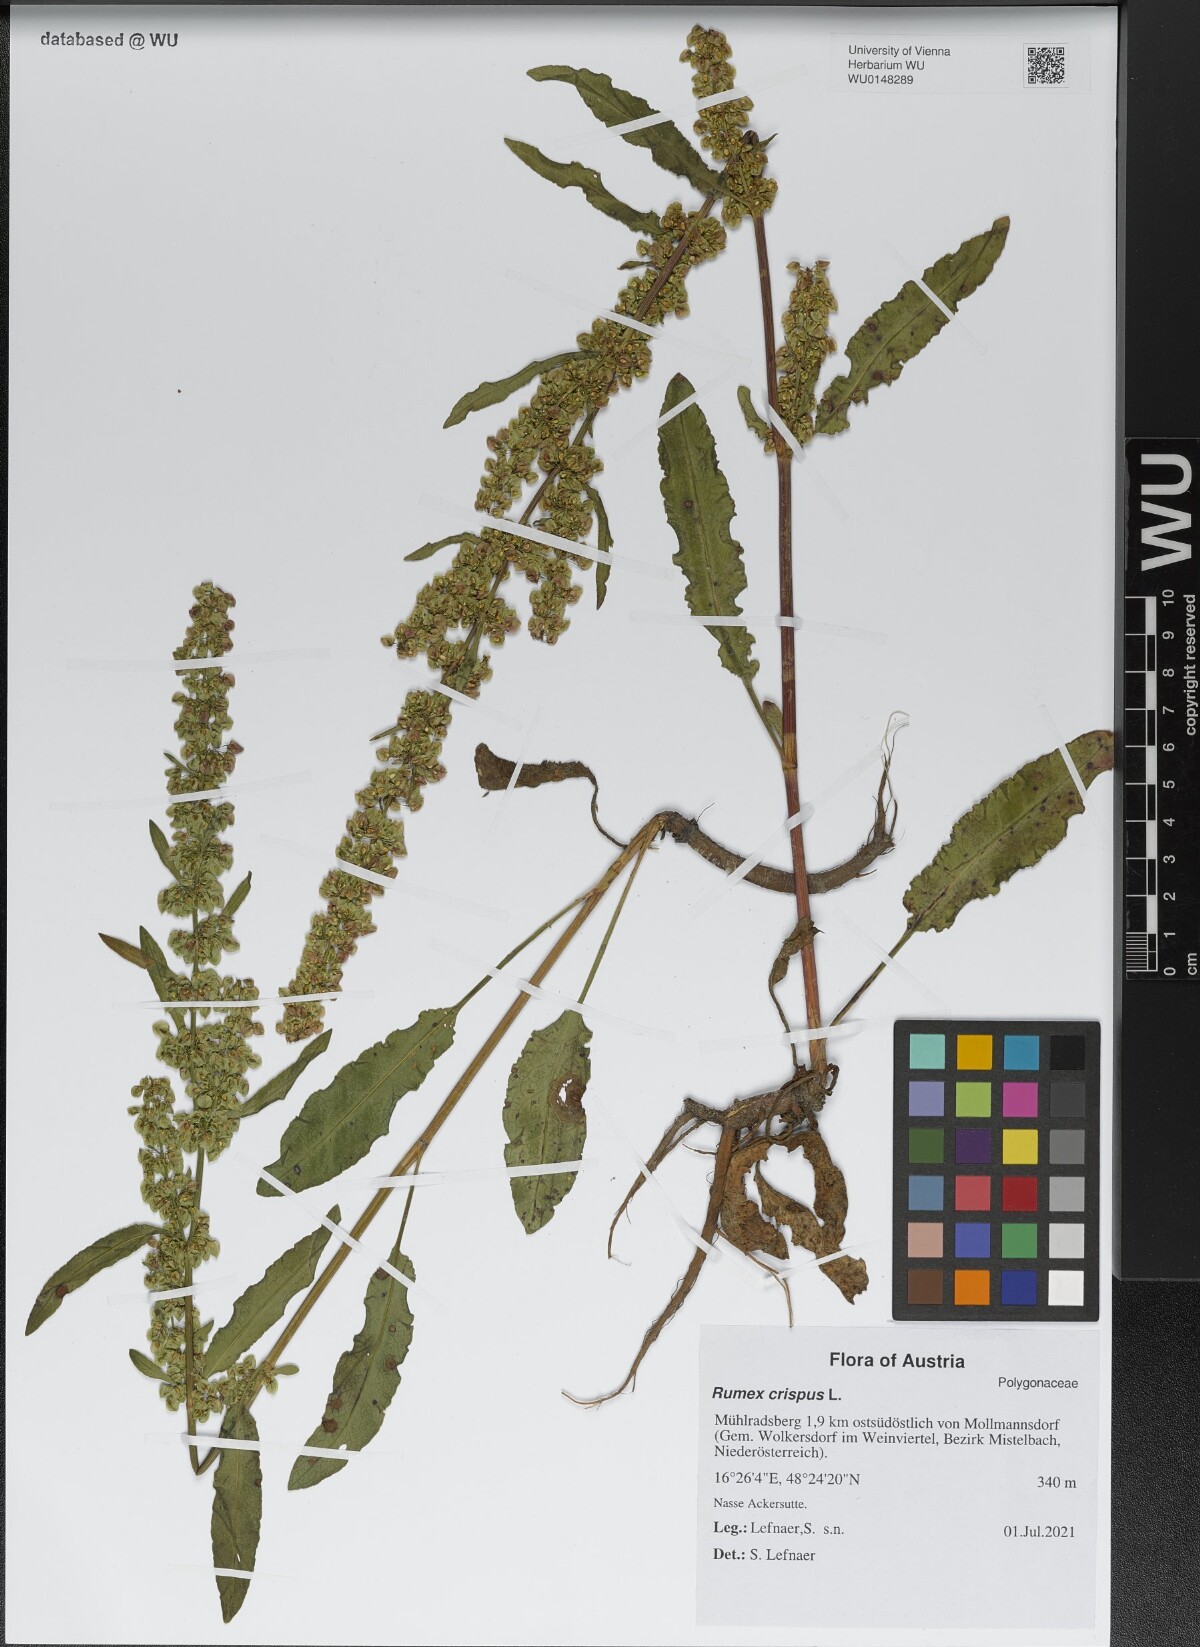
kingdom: Plantae
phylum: Tracheophyta
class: Magnoliopsida
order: Caryophyllales
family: Polygonaceae
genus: Rumex
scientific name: Rumex crispus
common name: Curled dock
